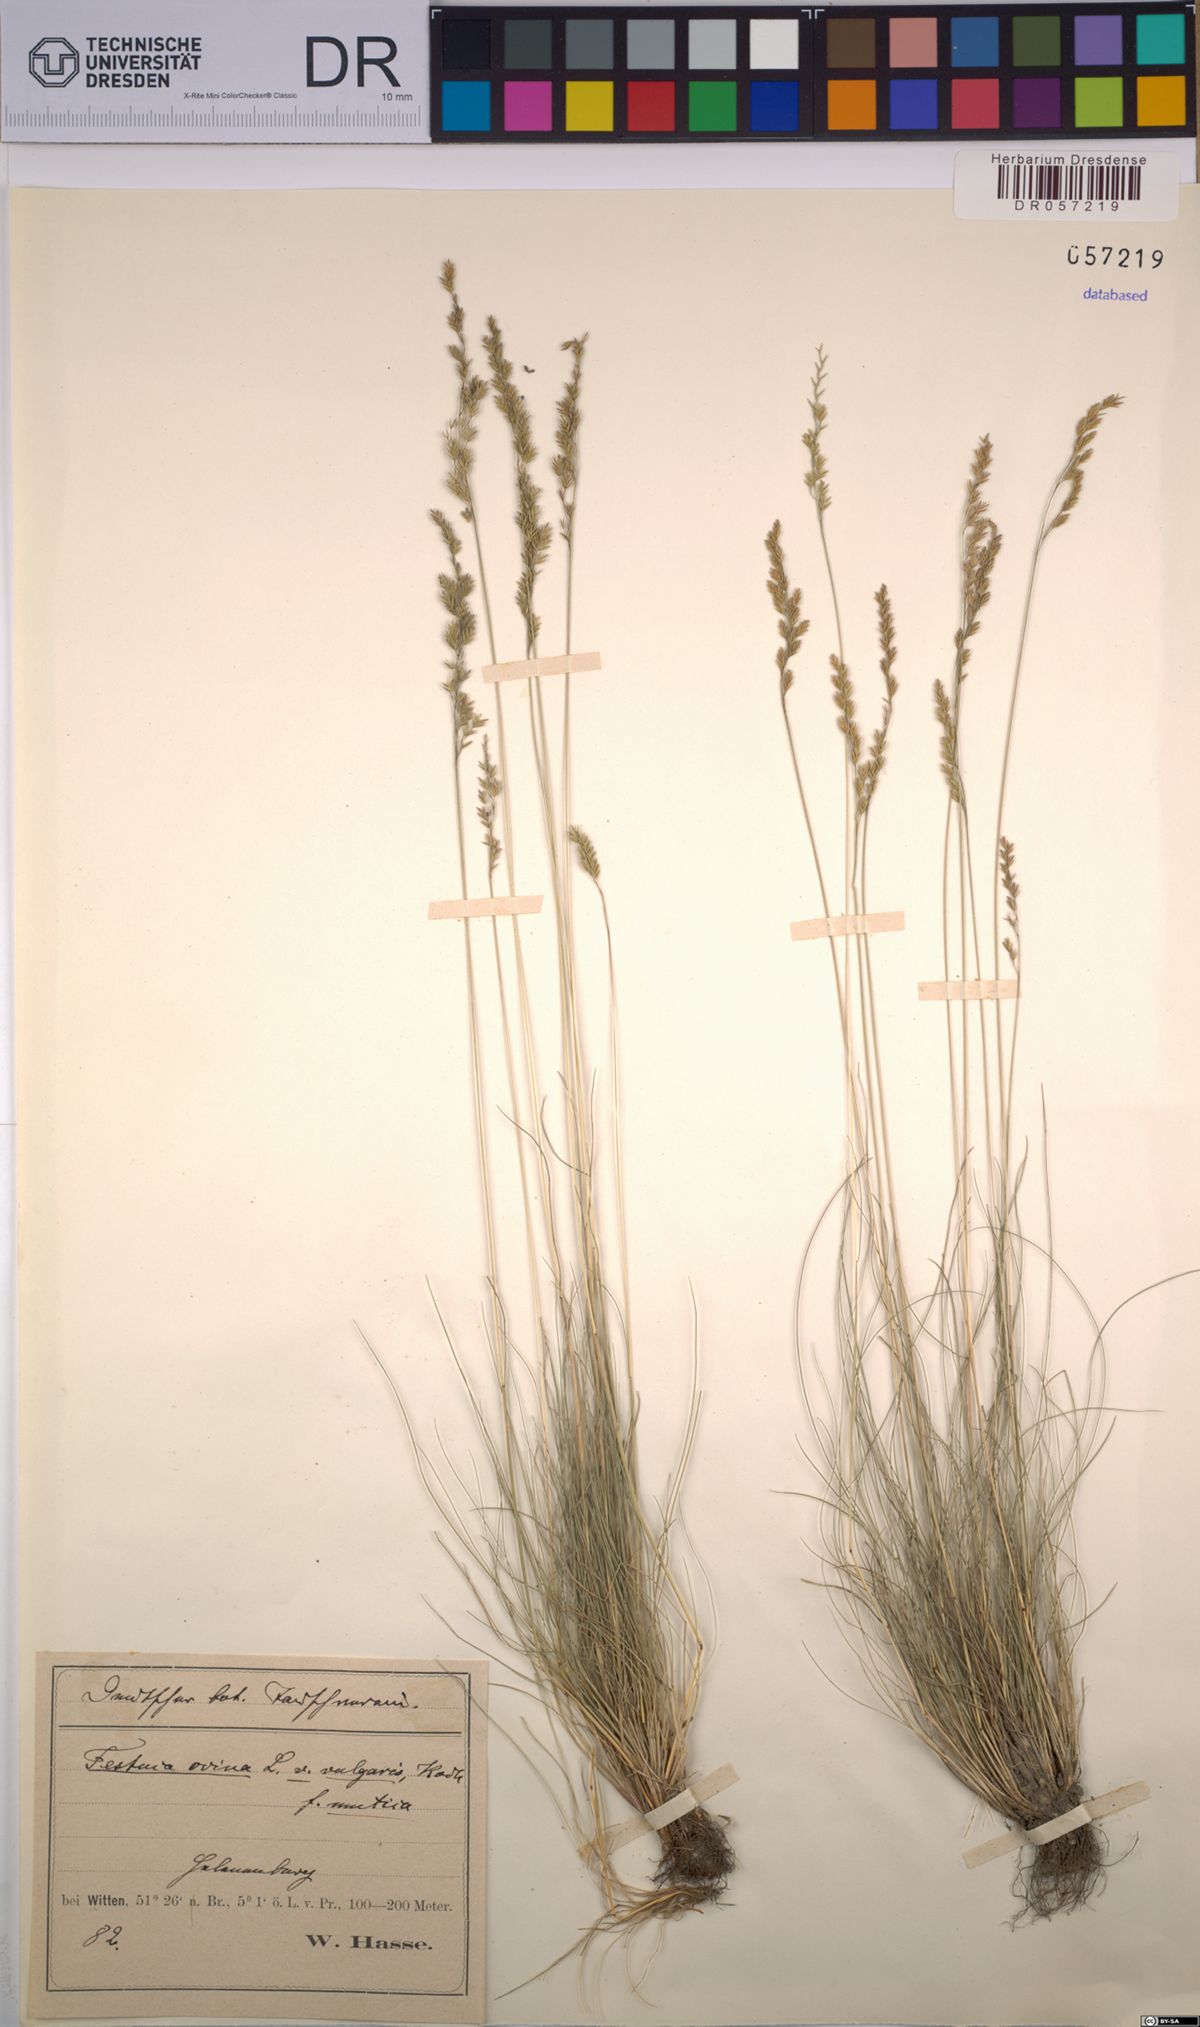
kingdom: Plantae
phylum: Tracheophyta
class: Liliopsida
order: Poales
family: Poaceae
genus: Festuca
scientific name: Festuca ovina
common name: Sheep fescue
